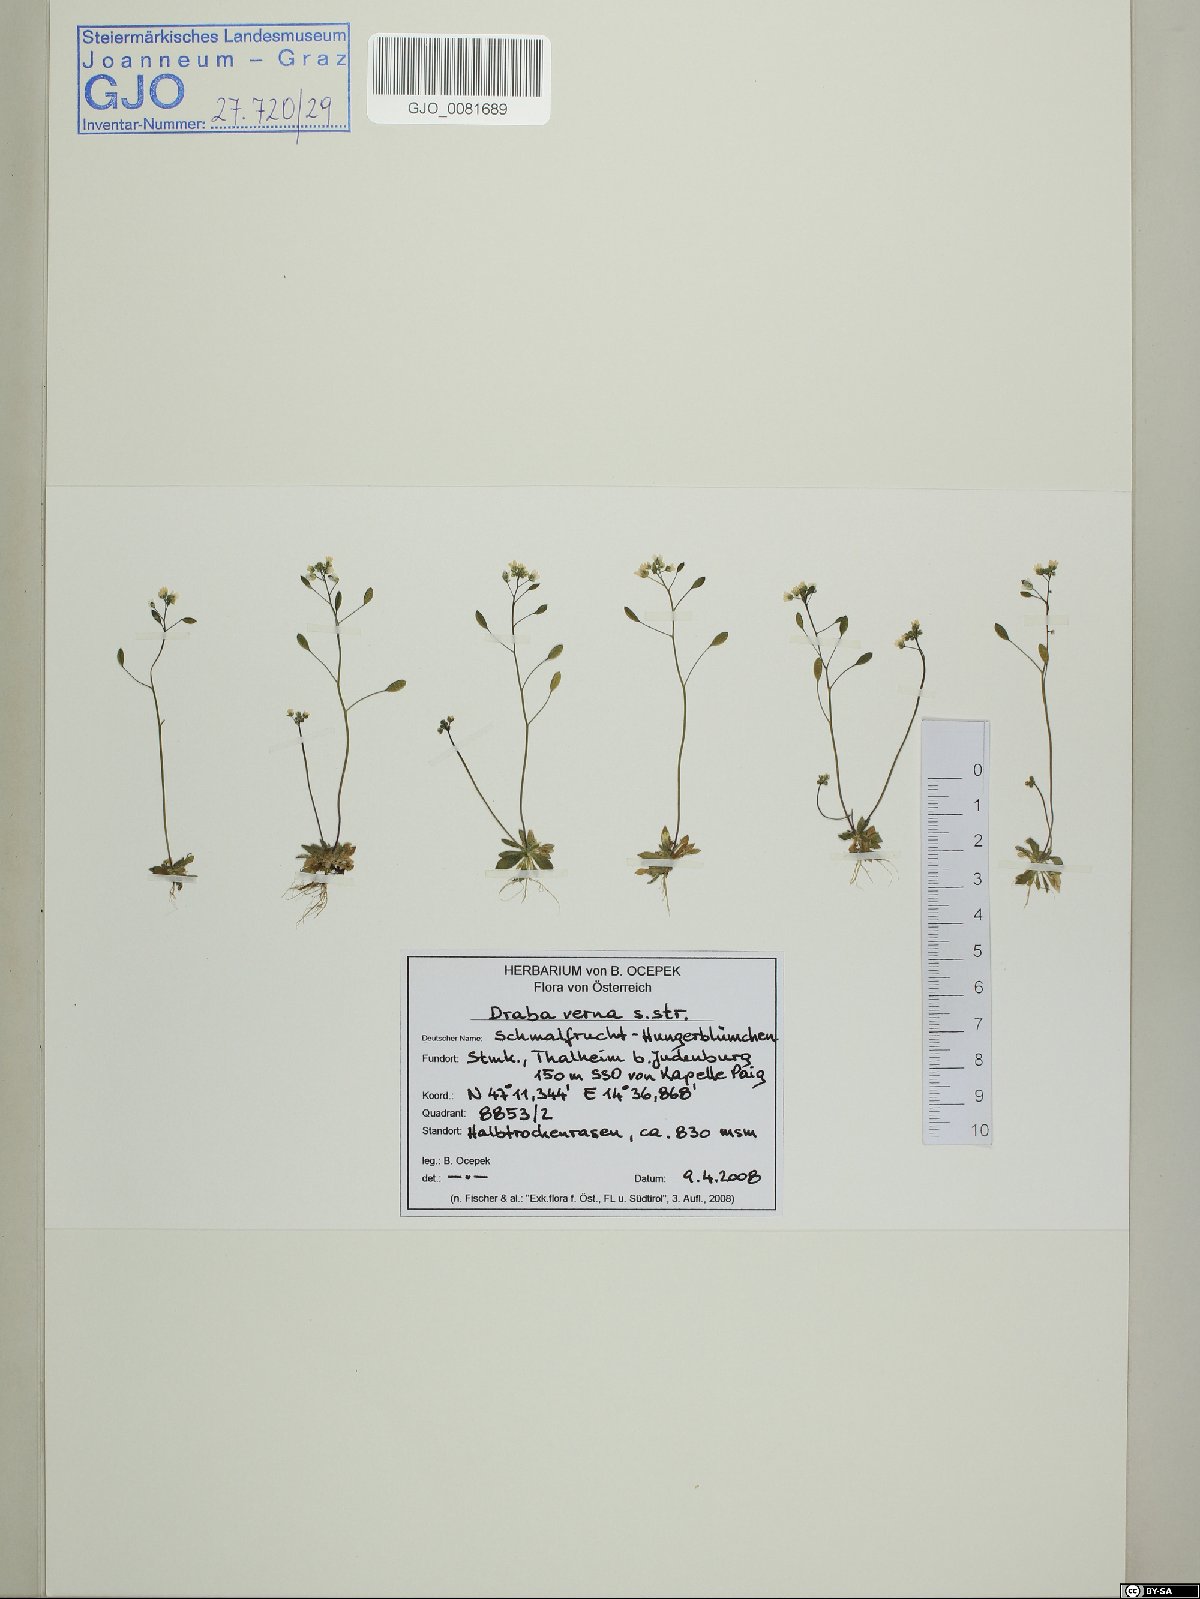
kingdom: Plantae
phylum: Tracheophyta
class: Magnoliopsida
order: Brassicales
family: Brassicaceae
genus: Draba
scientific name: Draba verna
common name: Spring draba
